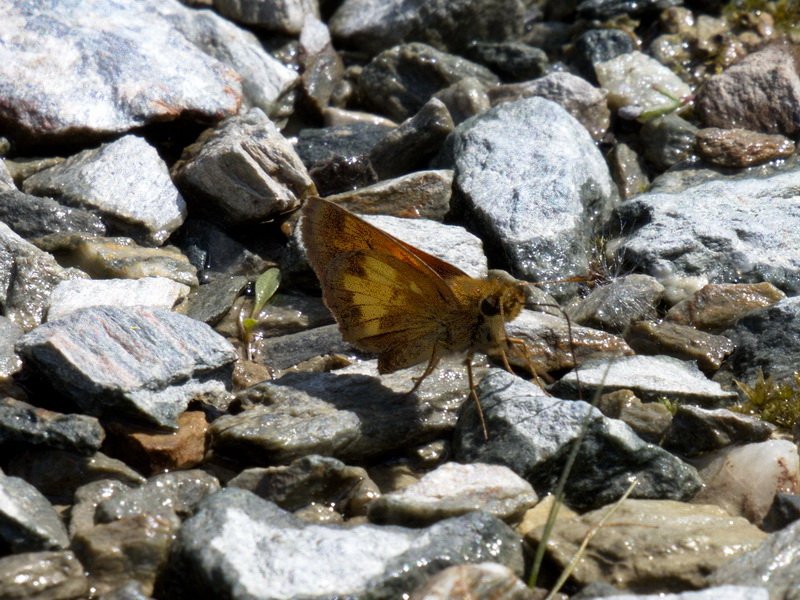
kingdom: Animalia
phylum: Arthropoda
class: Insecta
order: Lepidoptera
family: Hesperiidae
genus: Lon
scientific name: Lon hobomok
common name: Hobomok Skipper
